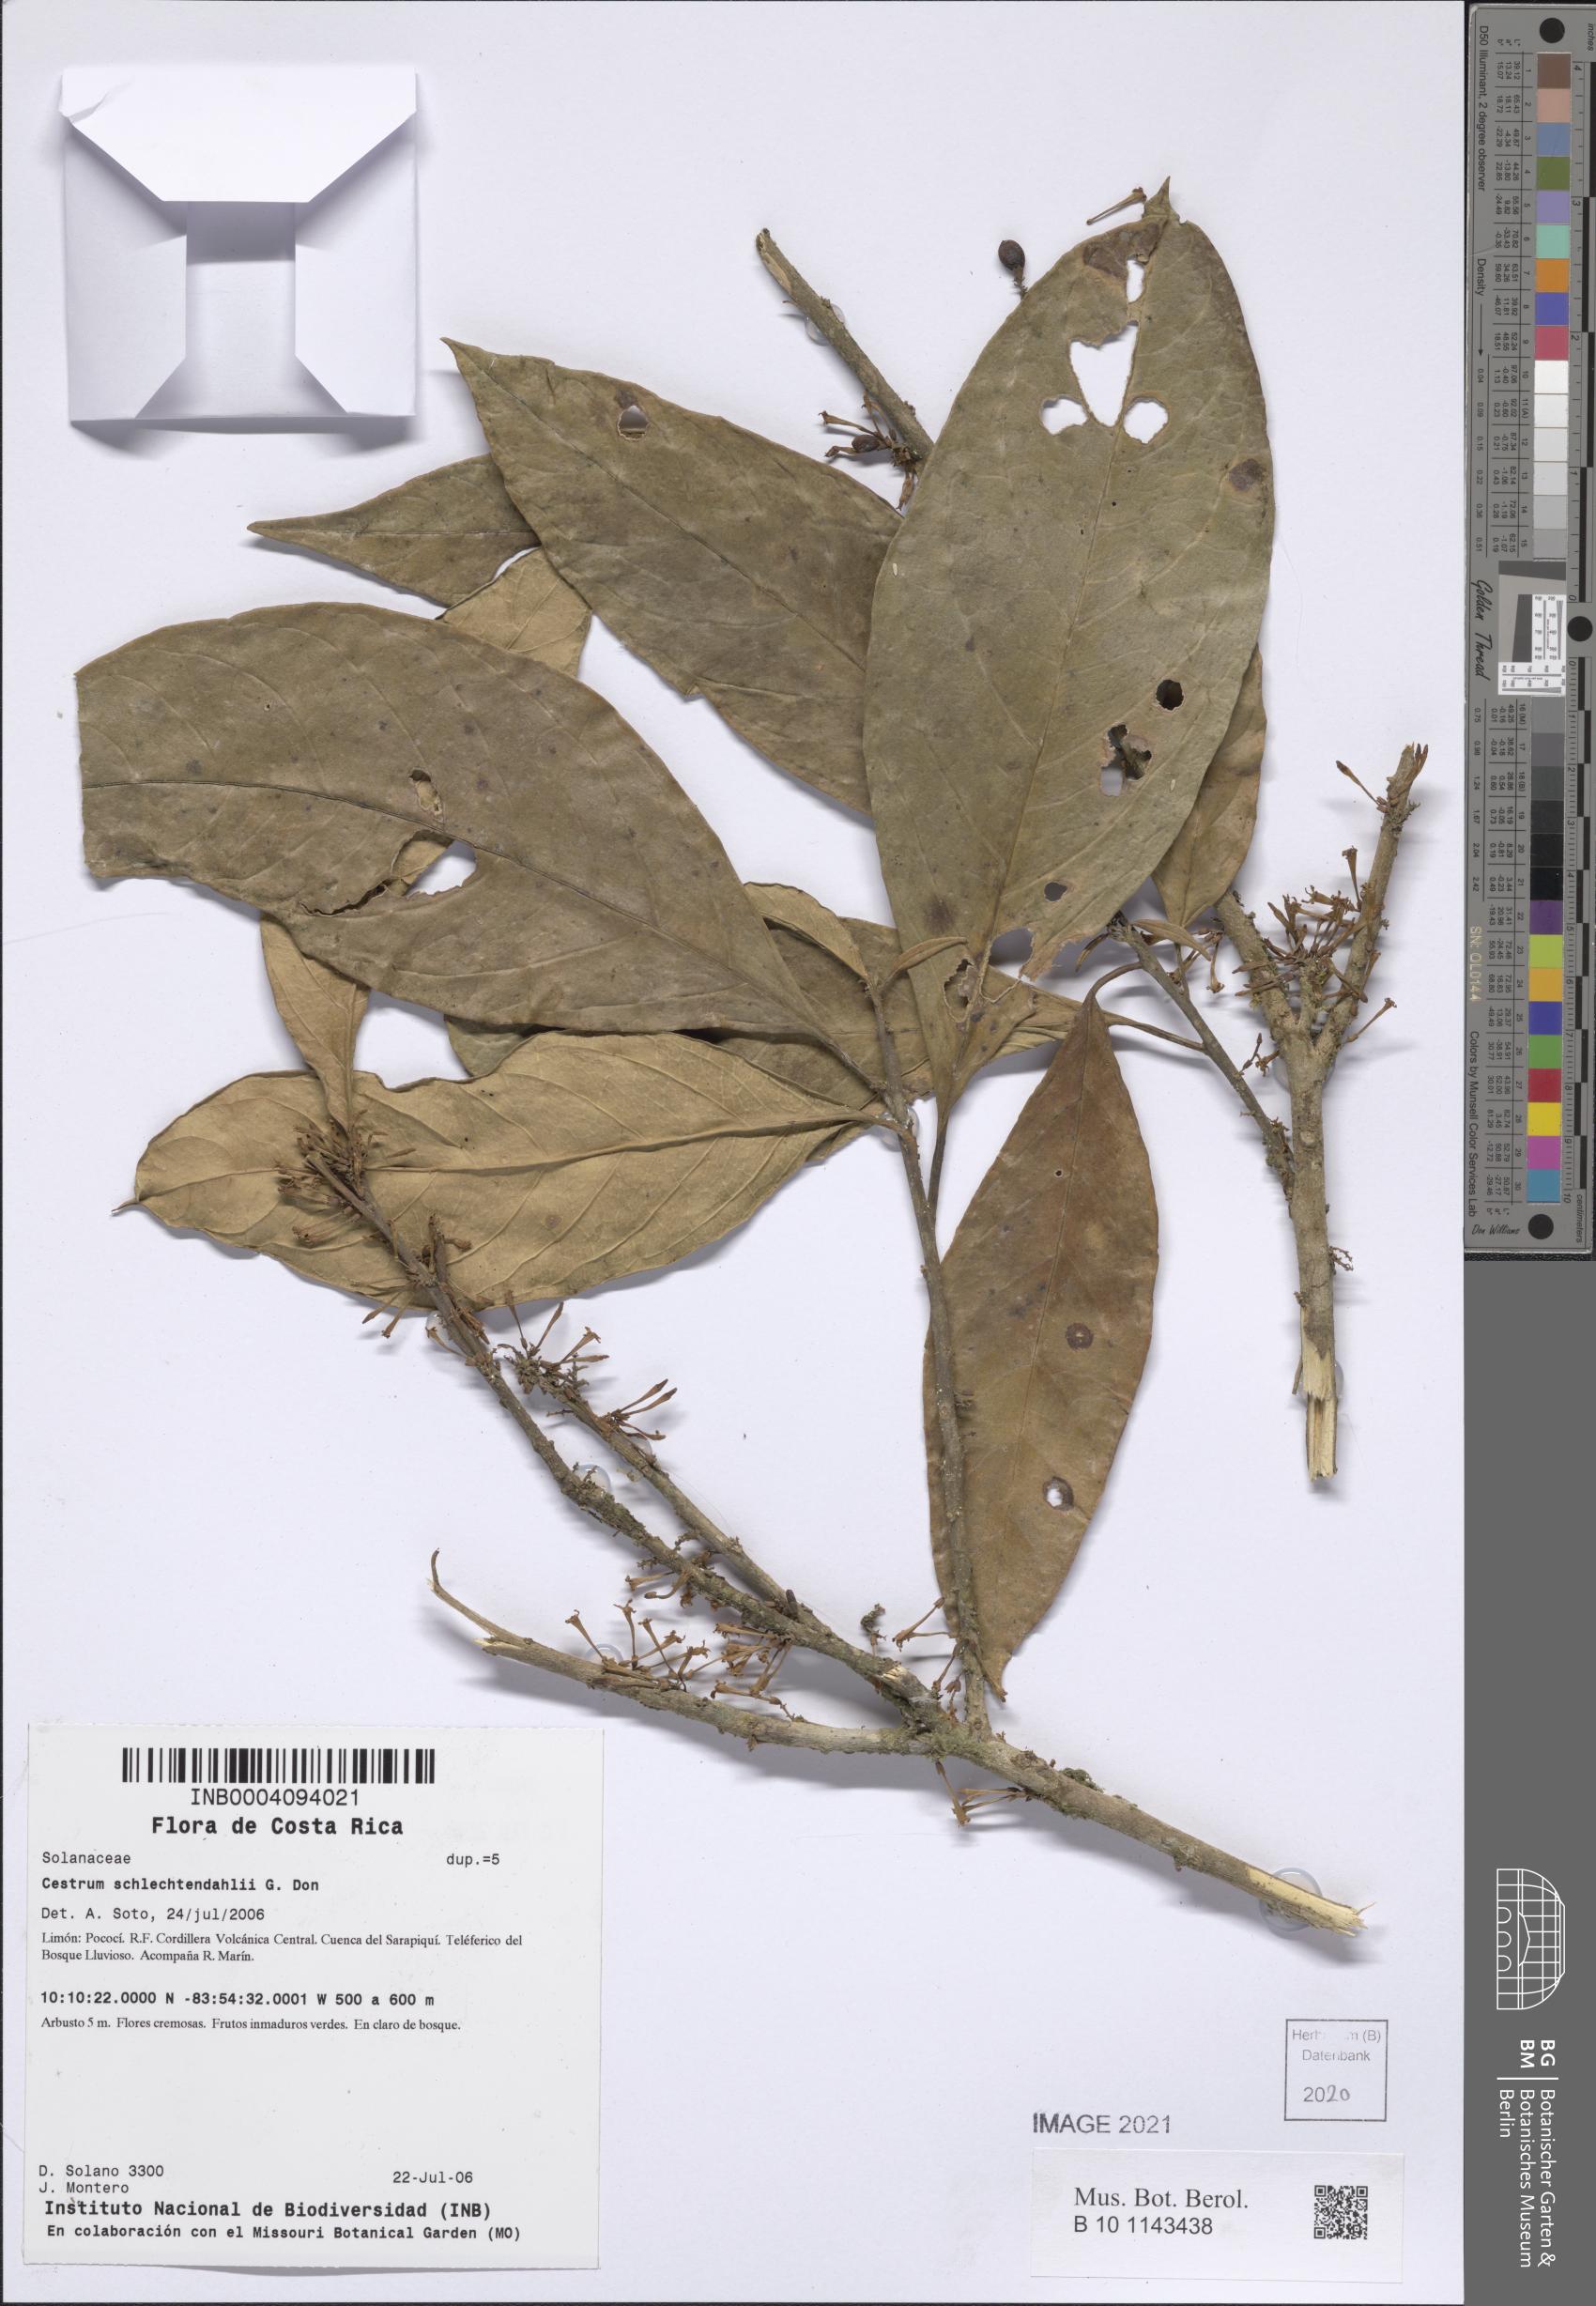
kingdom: Plantae
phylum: Tracheophyta
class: Magnoliopsida
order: Solanales
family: Solanaceae
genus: Cestrum
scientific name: Cestrum schlechtendalii
